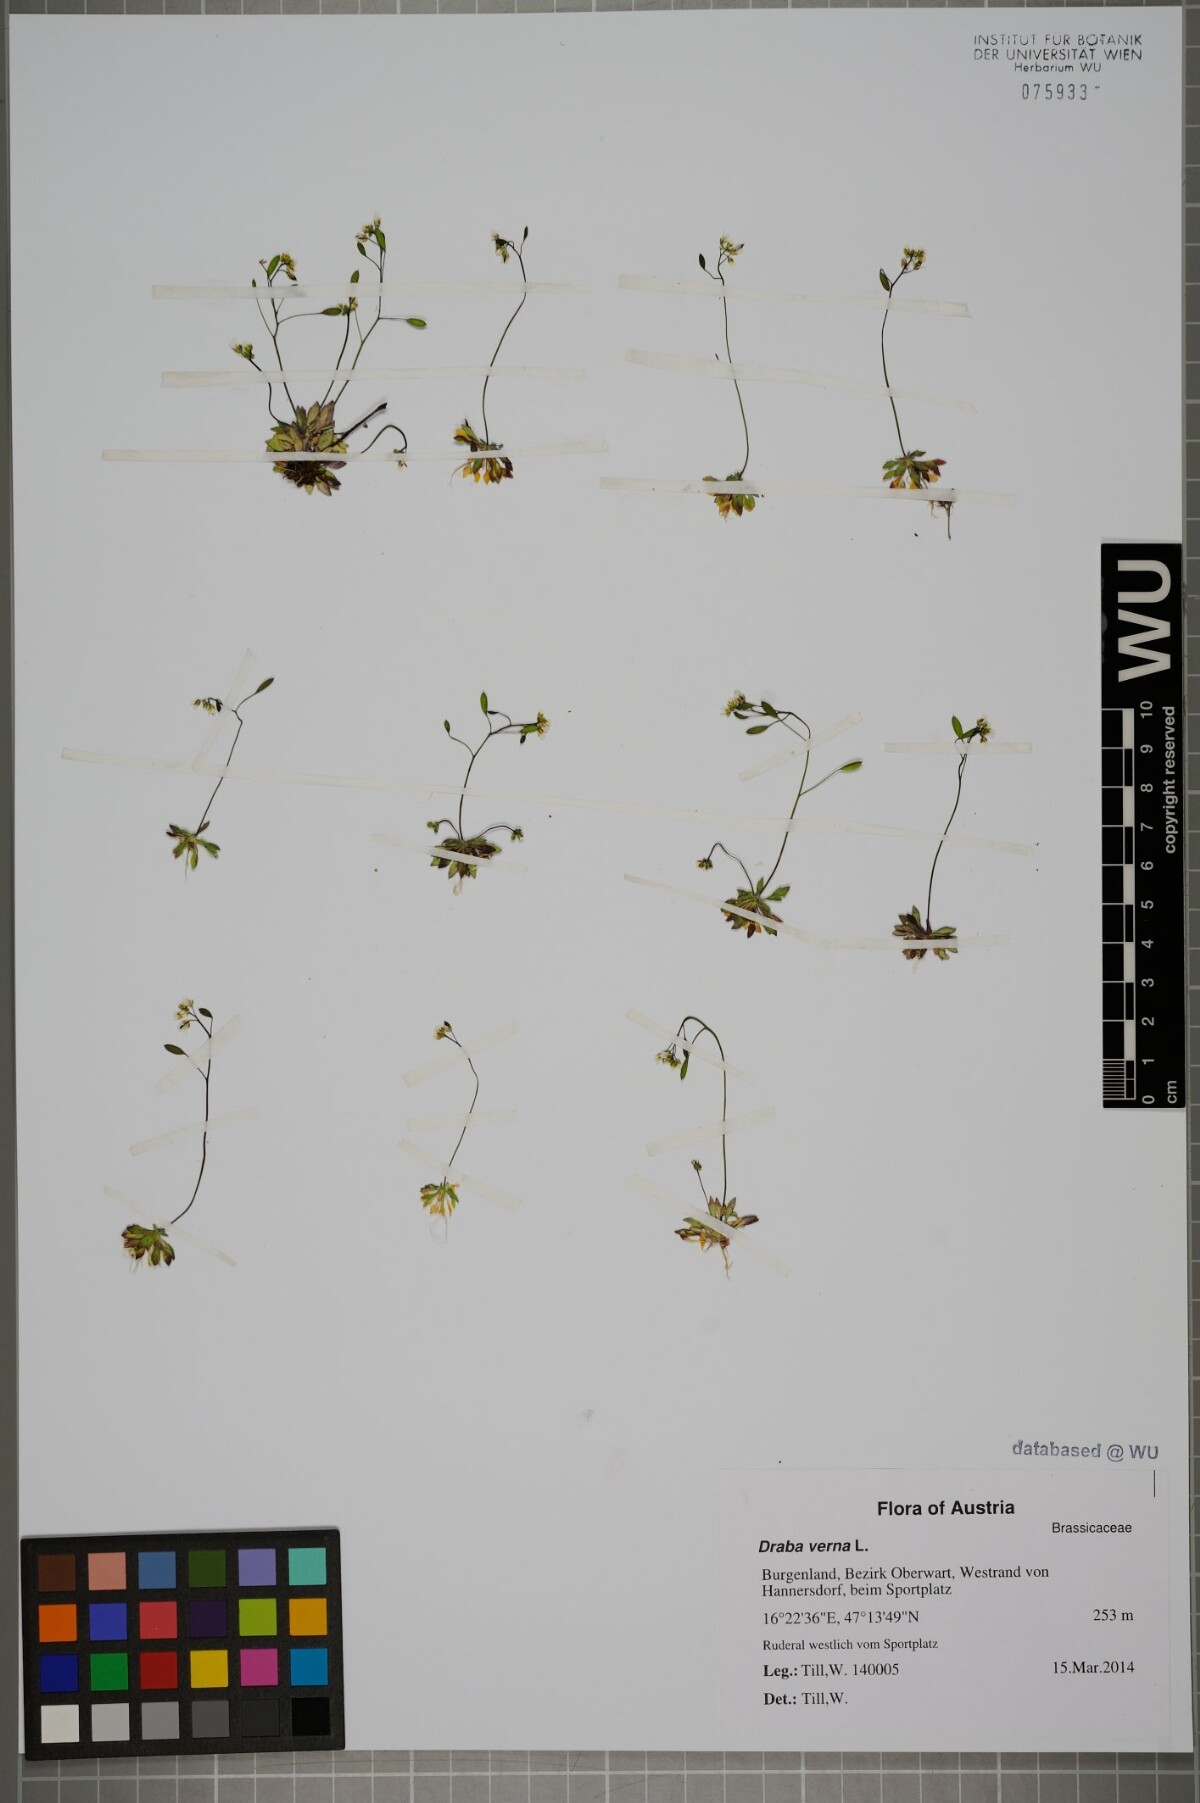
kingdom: Plantae
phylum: Tracheophyta
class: Magnoliopsida
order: Brassicales
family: Brassicaceae
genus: Draba
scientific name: Draba verna
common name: Spring draba
